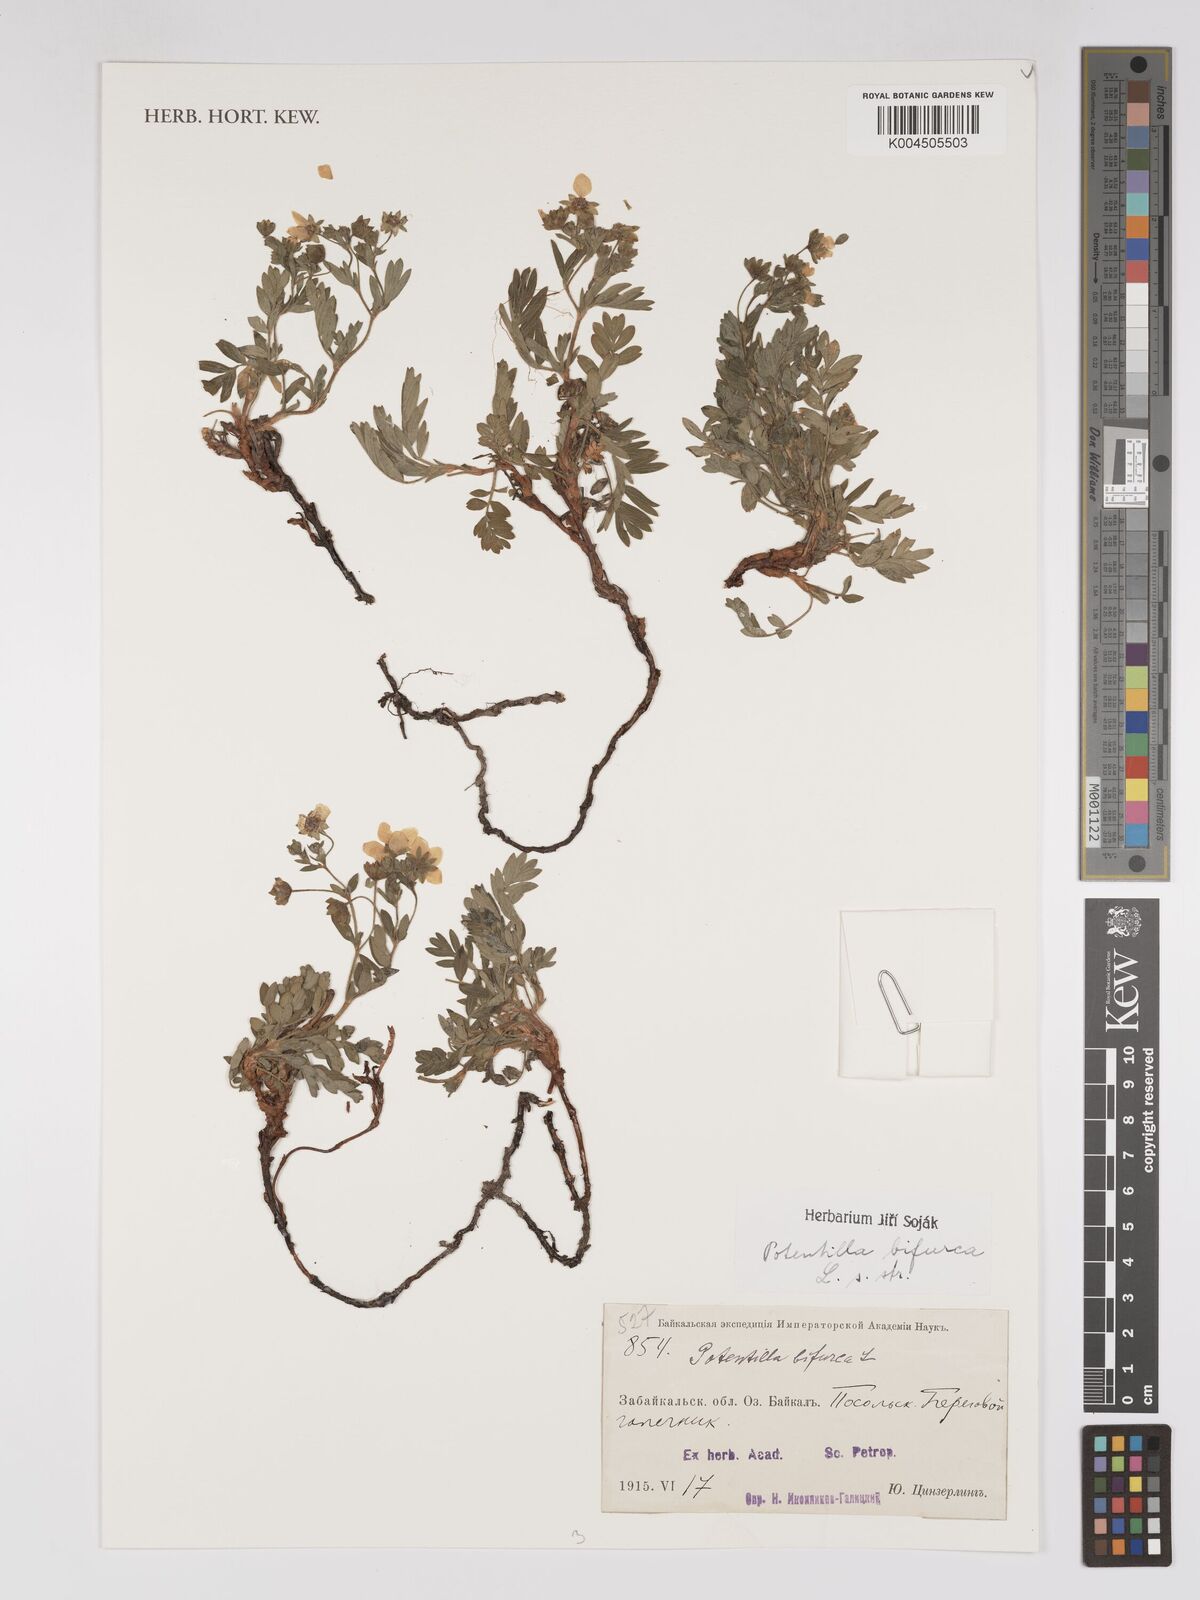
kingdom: Plantae
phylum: Tracheophyta
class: Magnoliopsida
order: Rosales
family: Rosaceae
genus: Sibbaldianthe
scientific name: Sibbaldianthe bifurca
